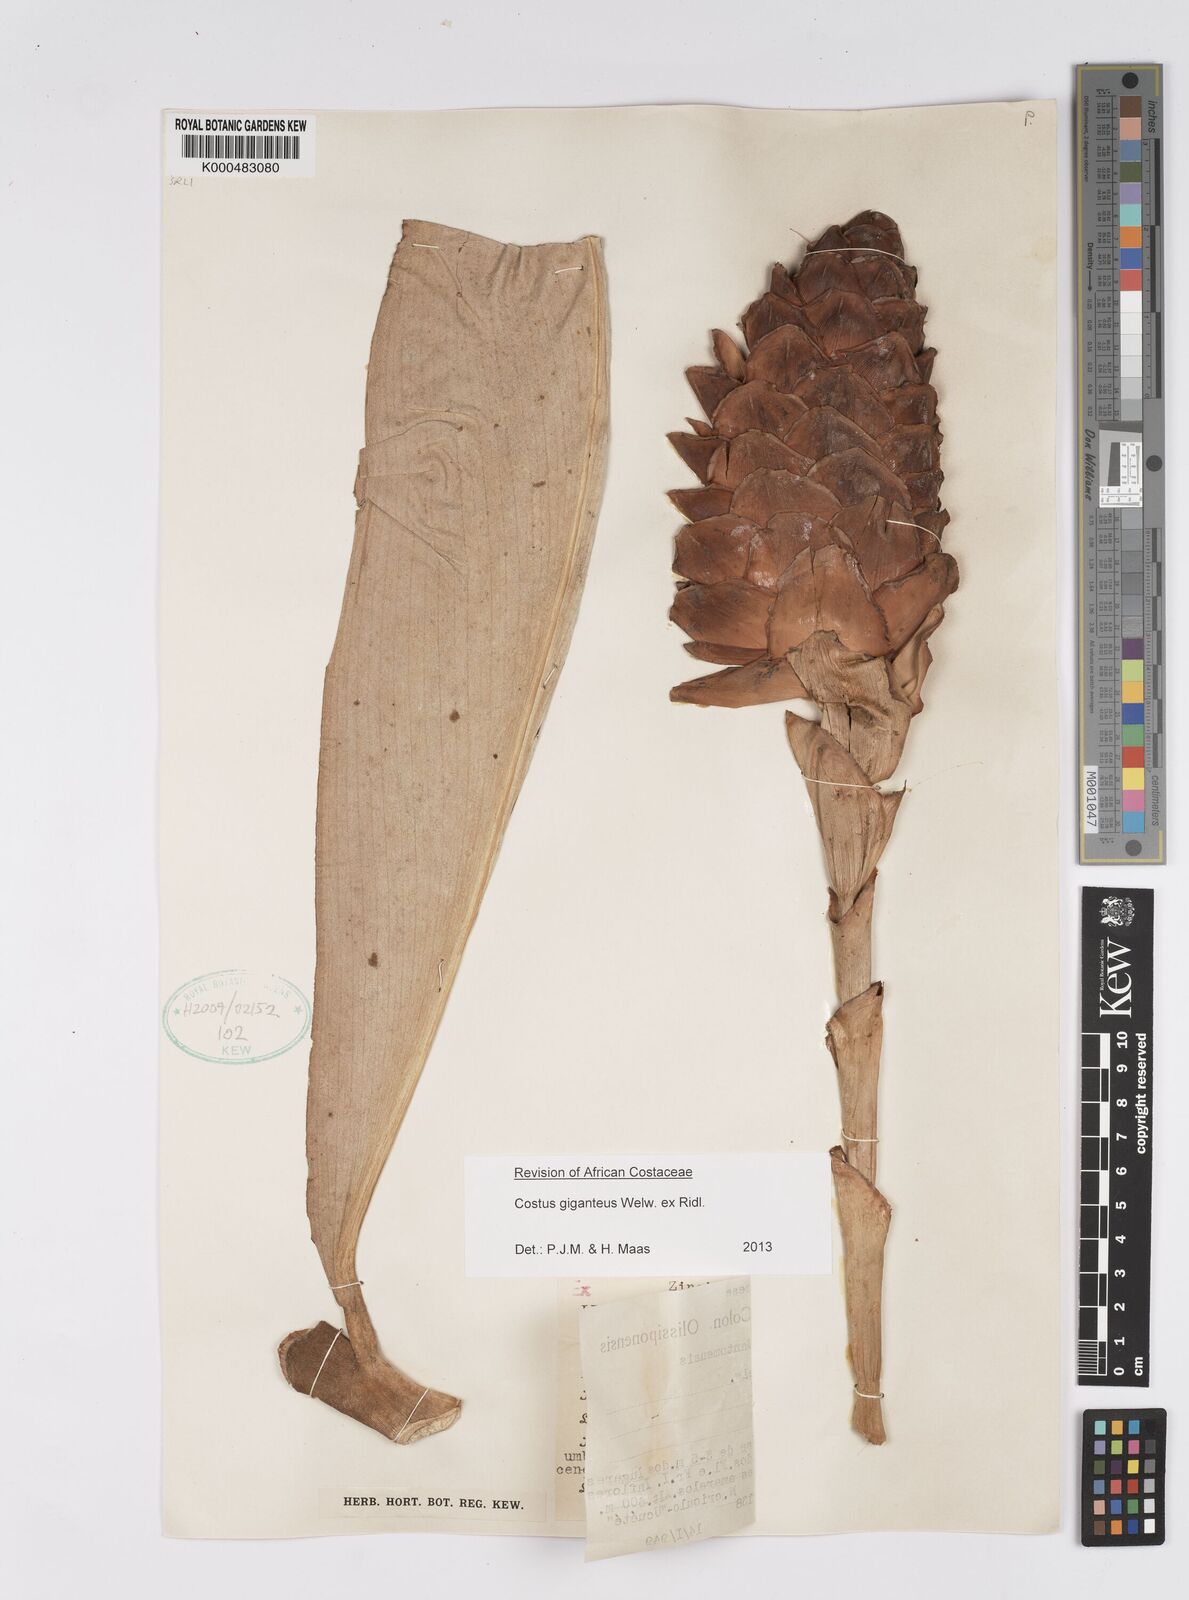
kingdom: Plantae
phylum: Tracheophyta
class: Liliopsida
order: Zingiberales
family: Costaceae
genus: Costus
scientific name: Costus giganteus
